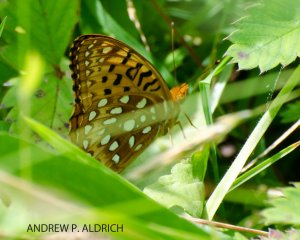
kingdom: Animalia
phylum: Arthropoda
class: Insecta
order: Lepidoptera
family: Nymphalidae
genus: Speyeria
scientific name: Speyeria cybele
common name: Great Spangled Fritillary
